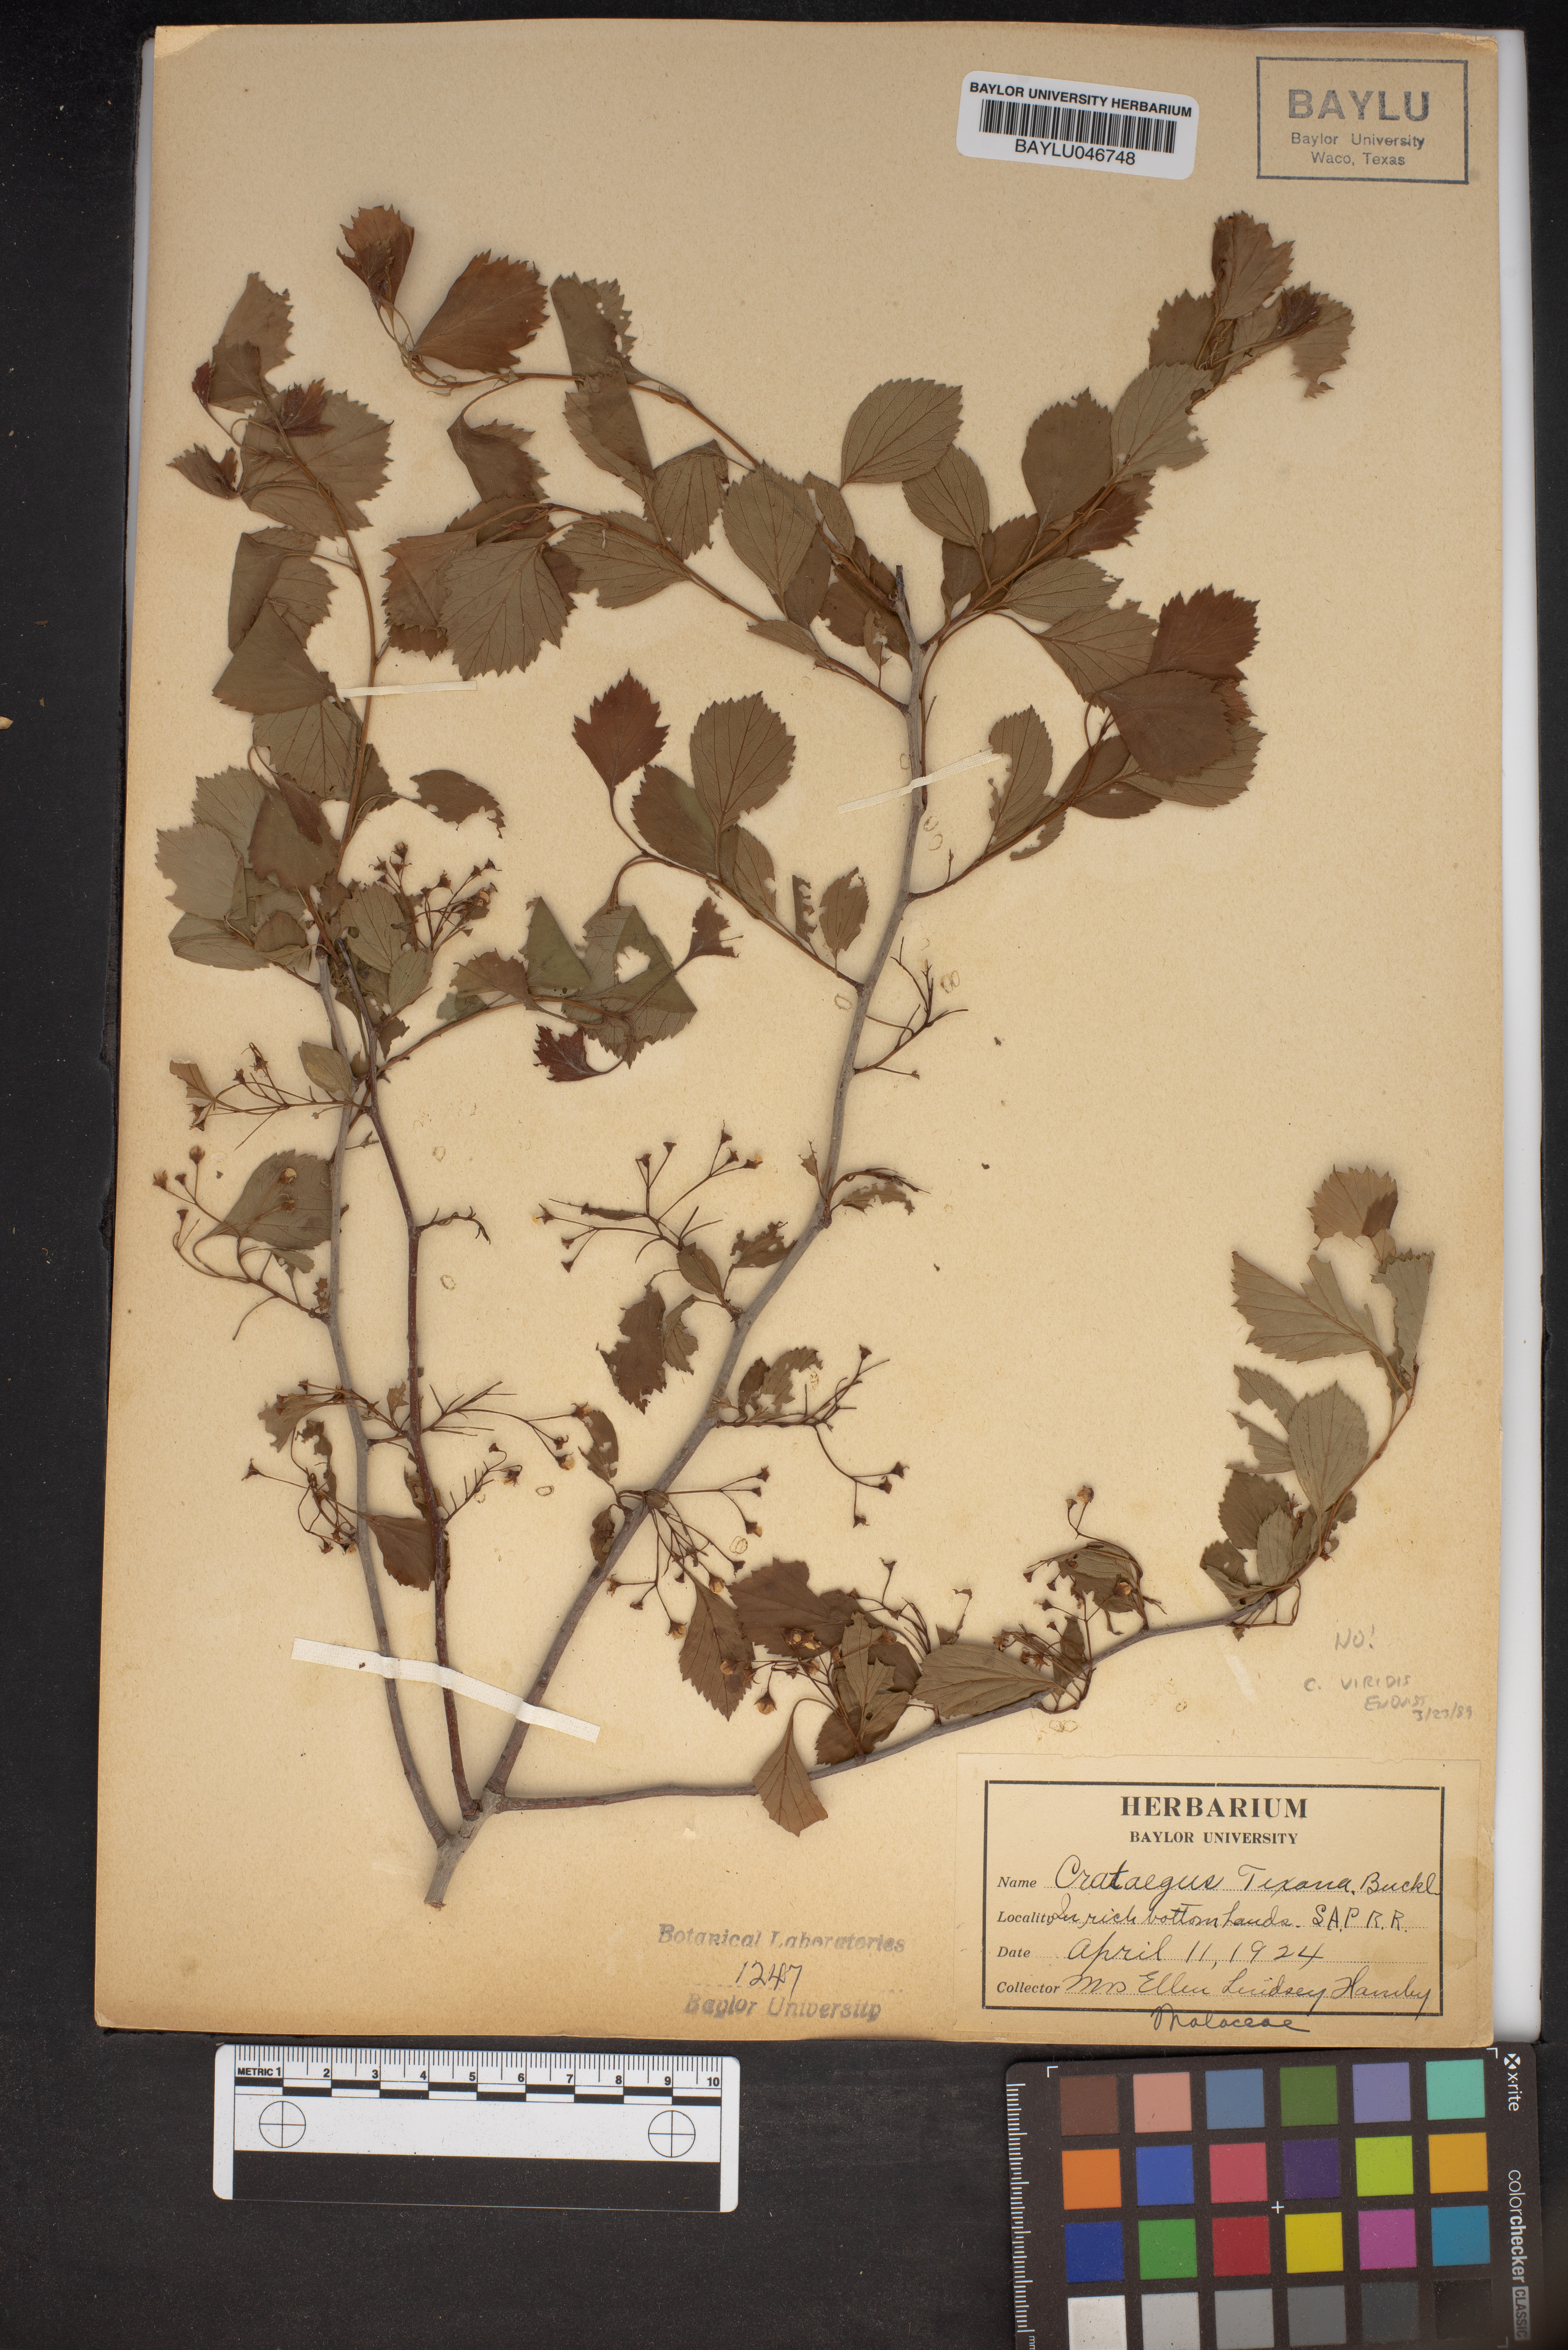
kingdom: Plantae
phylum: Tracheophyta
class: Magnoliopsida
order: Rosales
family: Rosaceae
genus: Crataegus
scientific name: Crataegus texana
